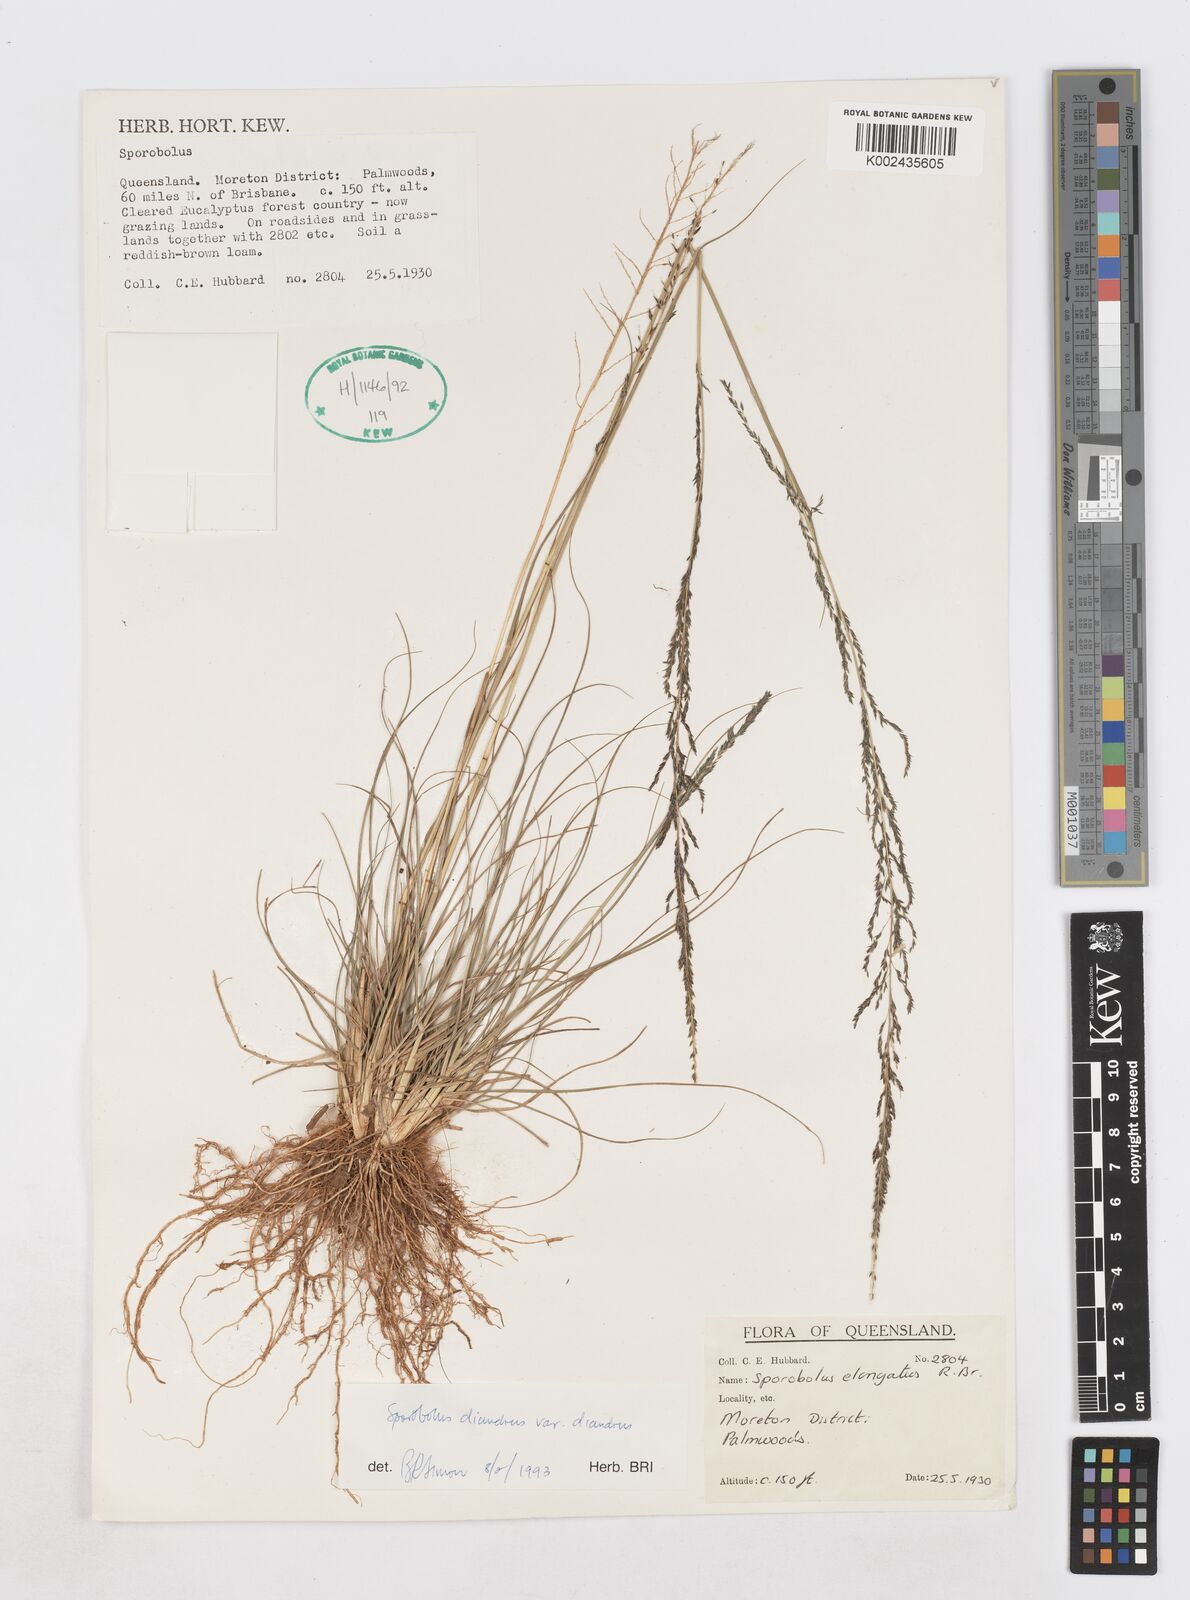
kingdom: Plantae
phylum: Tracheophyta
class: Liliopsida
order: Poales
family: Poaceae
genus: Sporobolus
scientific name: Sporobolus diandrus
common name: Tussock dropseed
